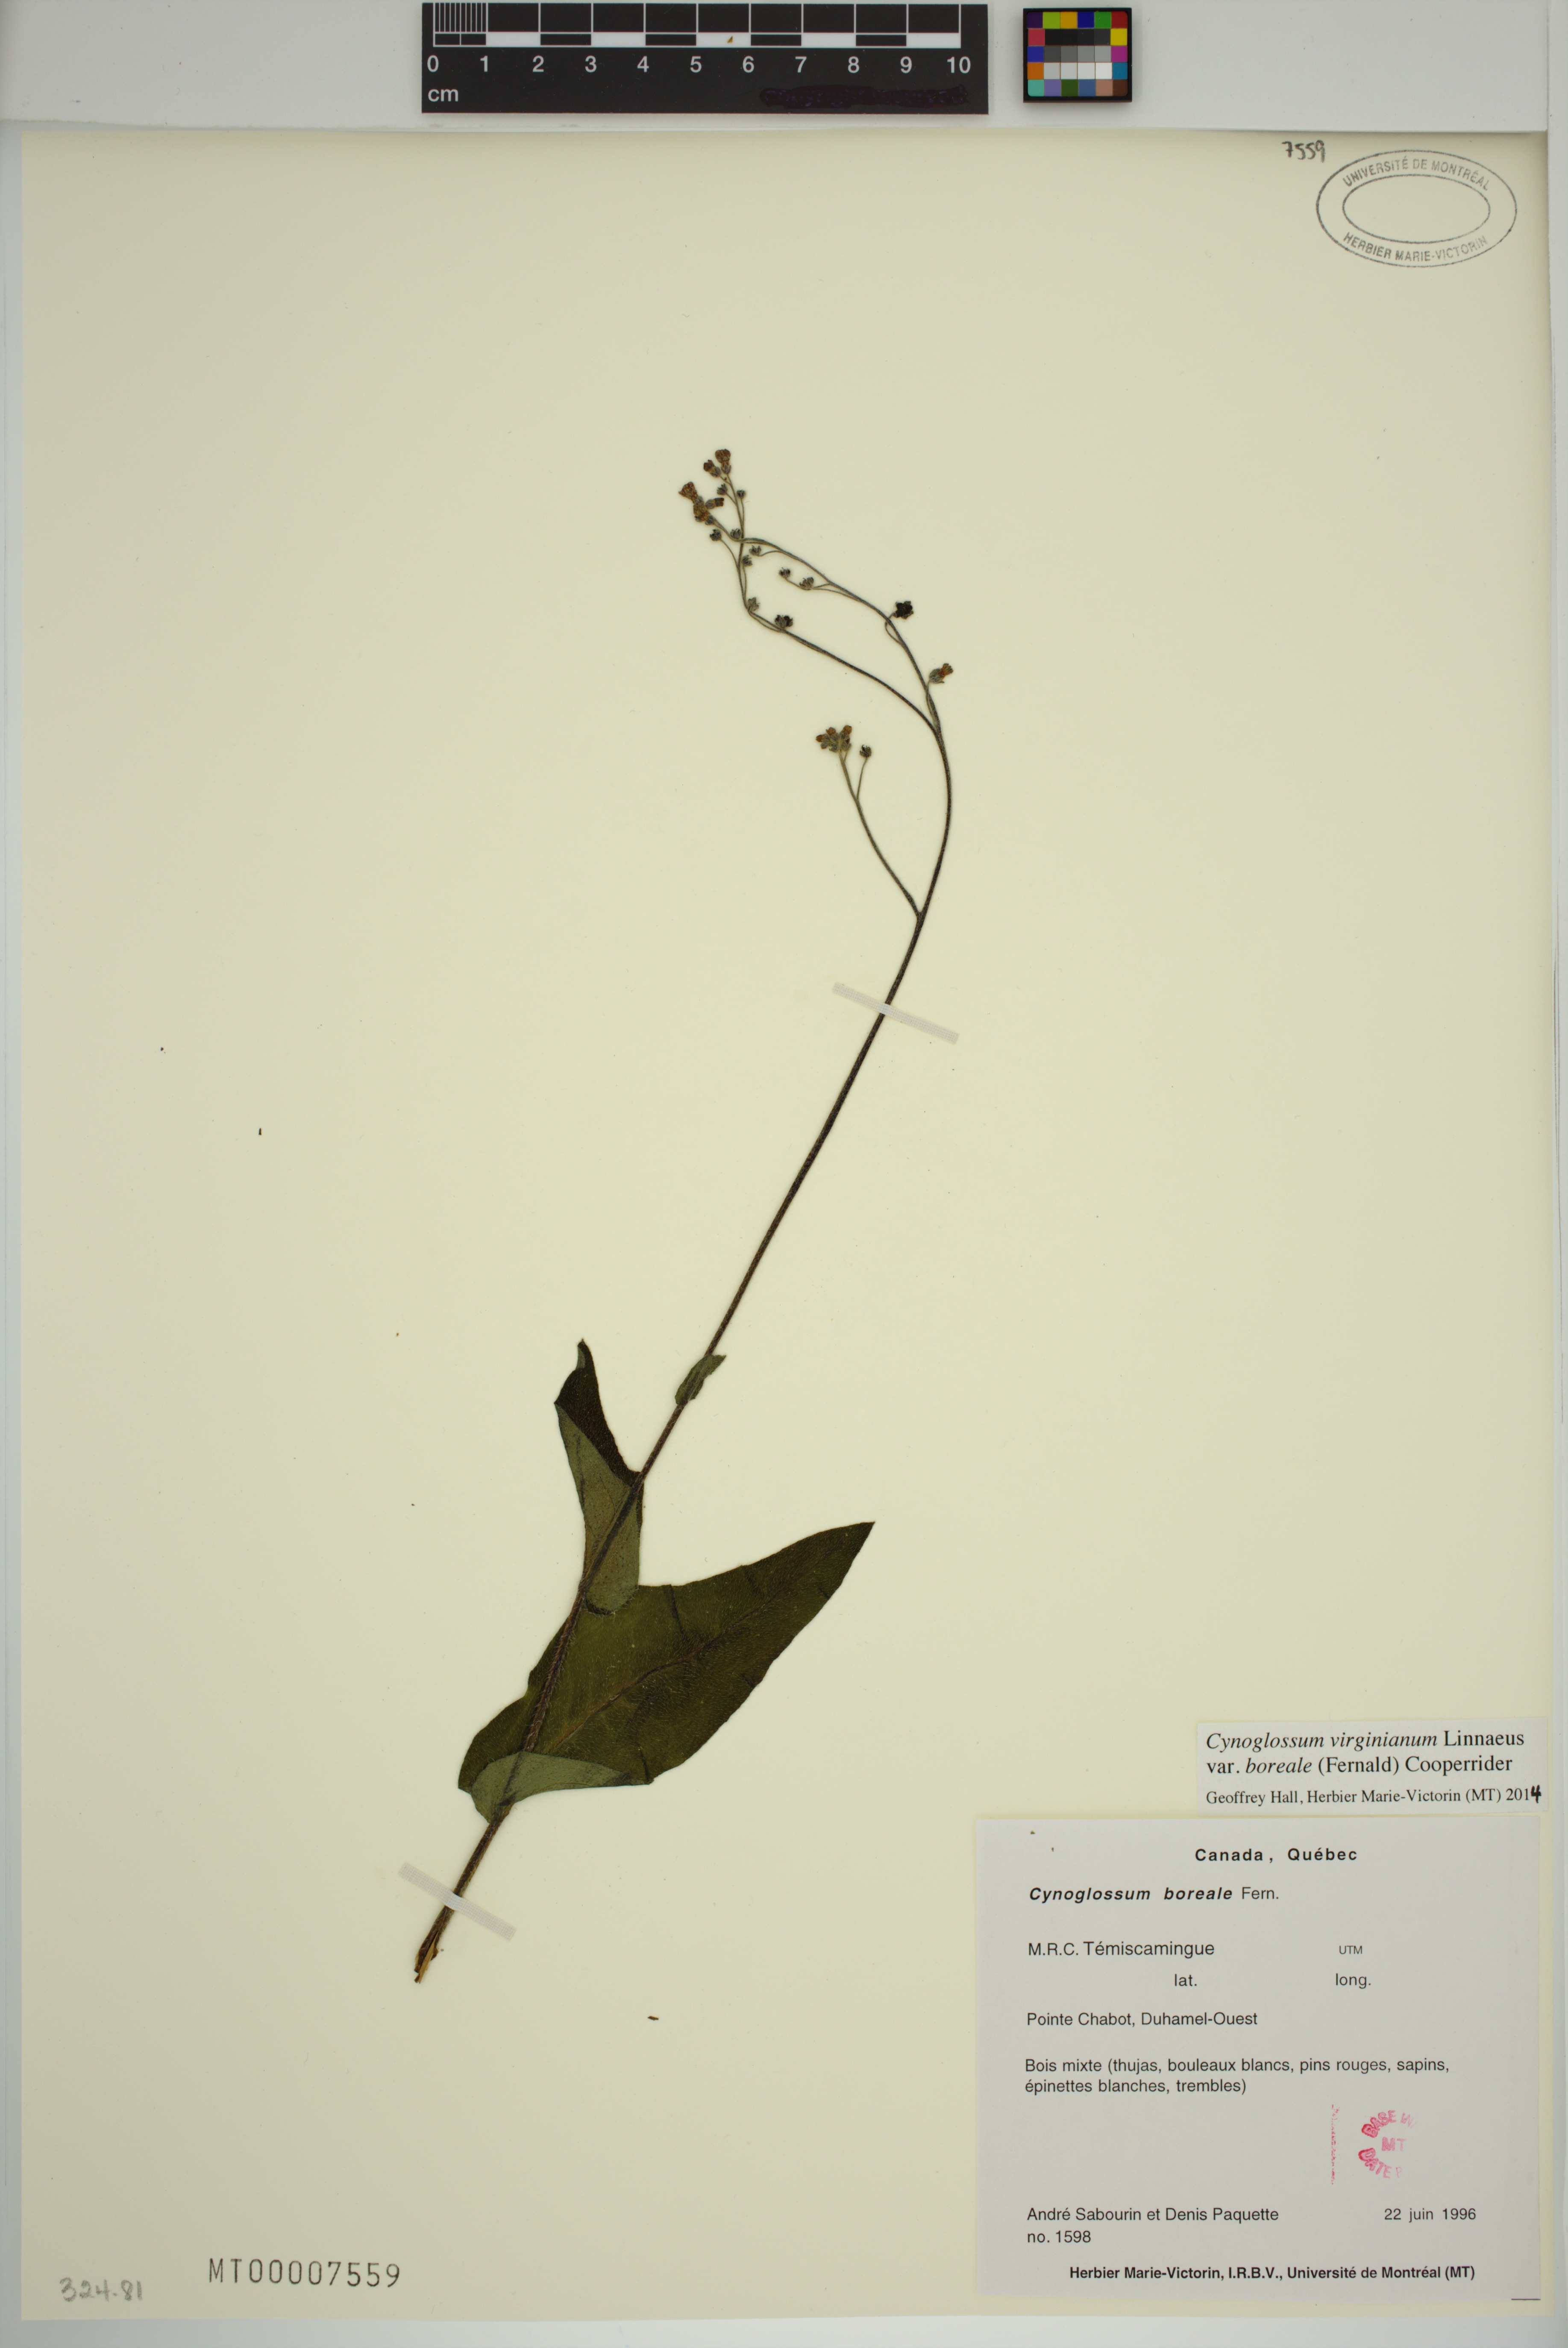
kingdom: Plantae
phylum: Tracheophyta
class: Magnoliopsida
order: Boraginales
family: Boraginaceae
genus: Andersonglossum
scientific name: Andersonglossum boreale
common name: Northern hound's-tongue
